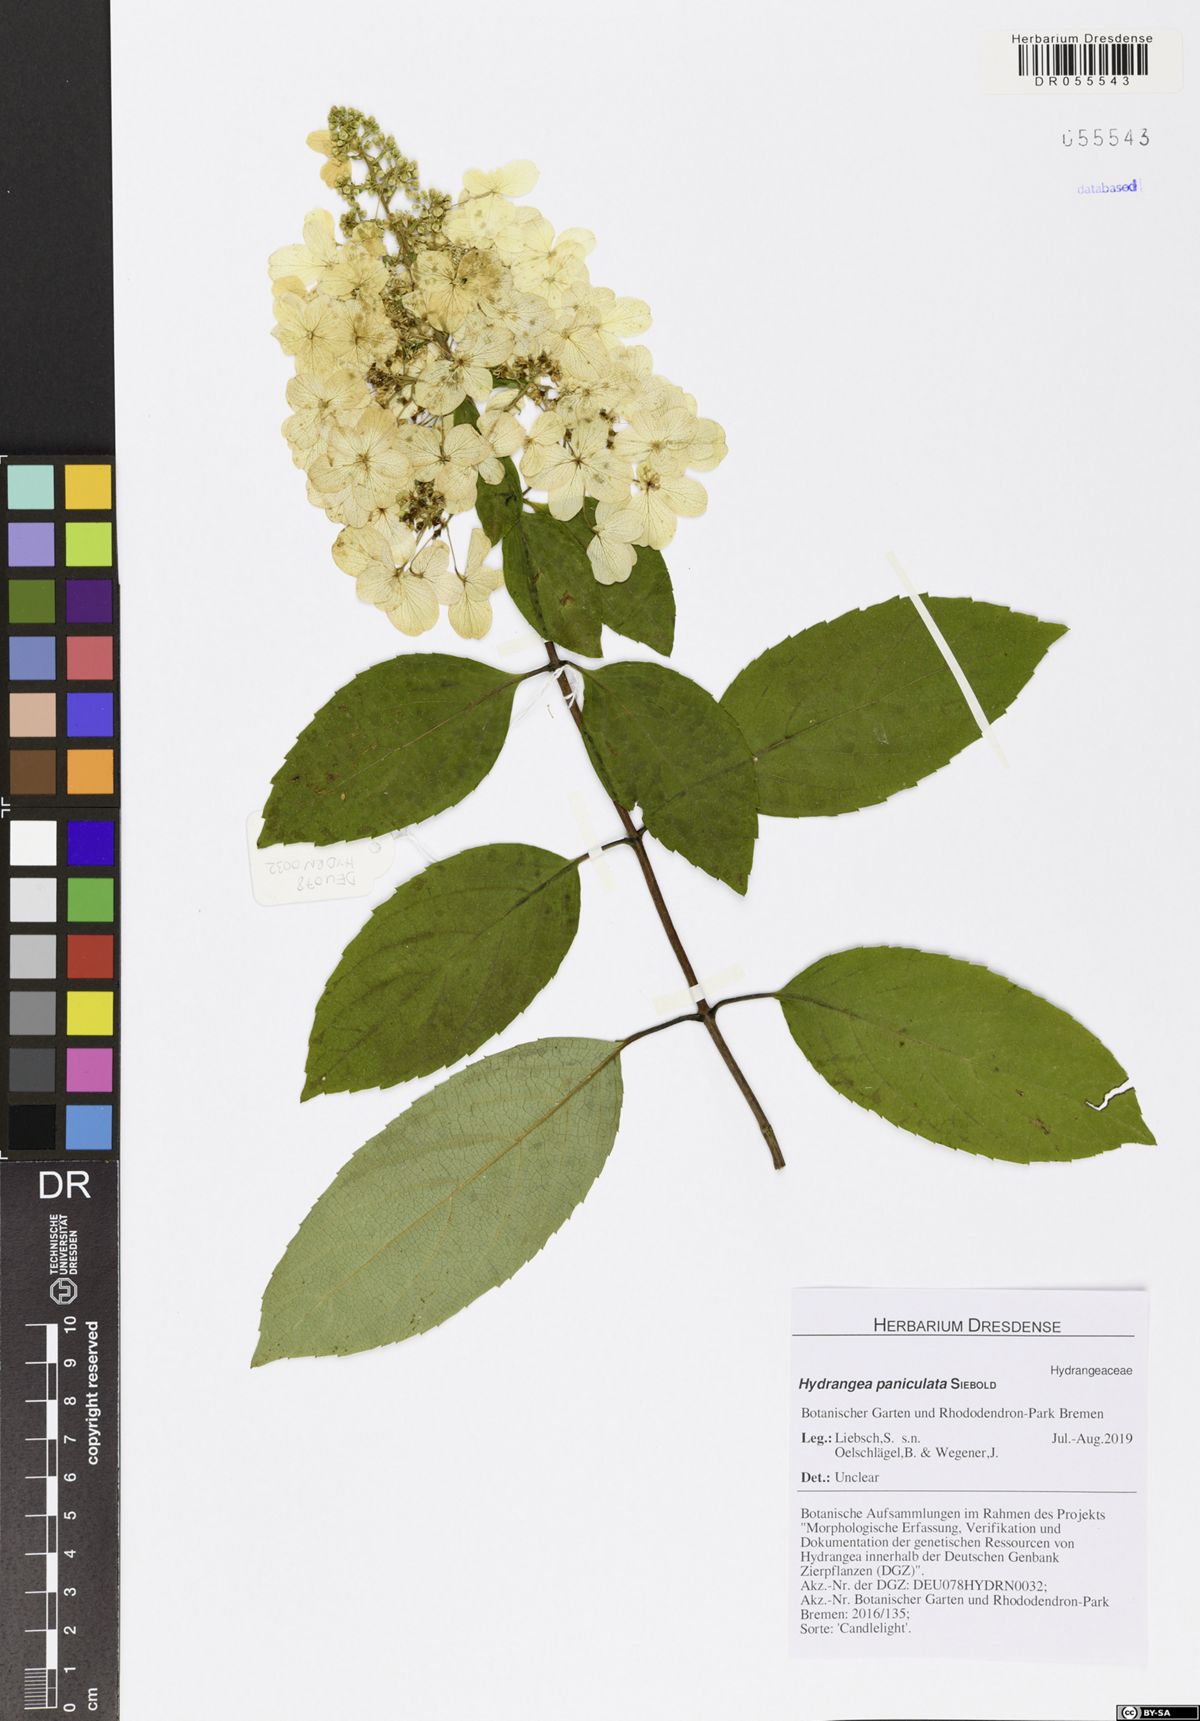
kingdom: Plantae
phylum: Tracheophyta
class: Magnoliopsida
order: Cornales
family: Hydrangeaceae
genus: Hydrangea
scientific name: Hydrangea paniculata
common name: Panicled hydrangea
